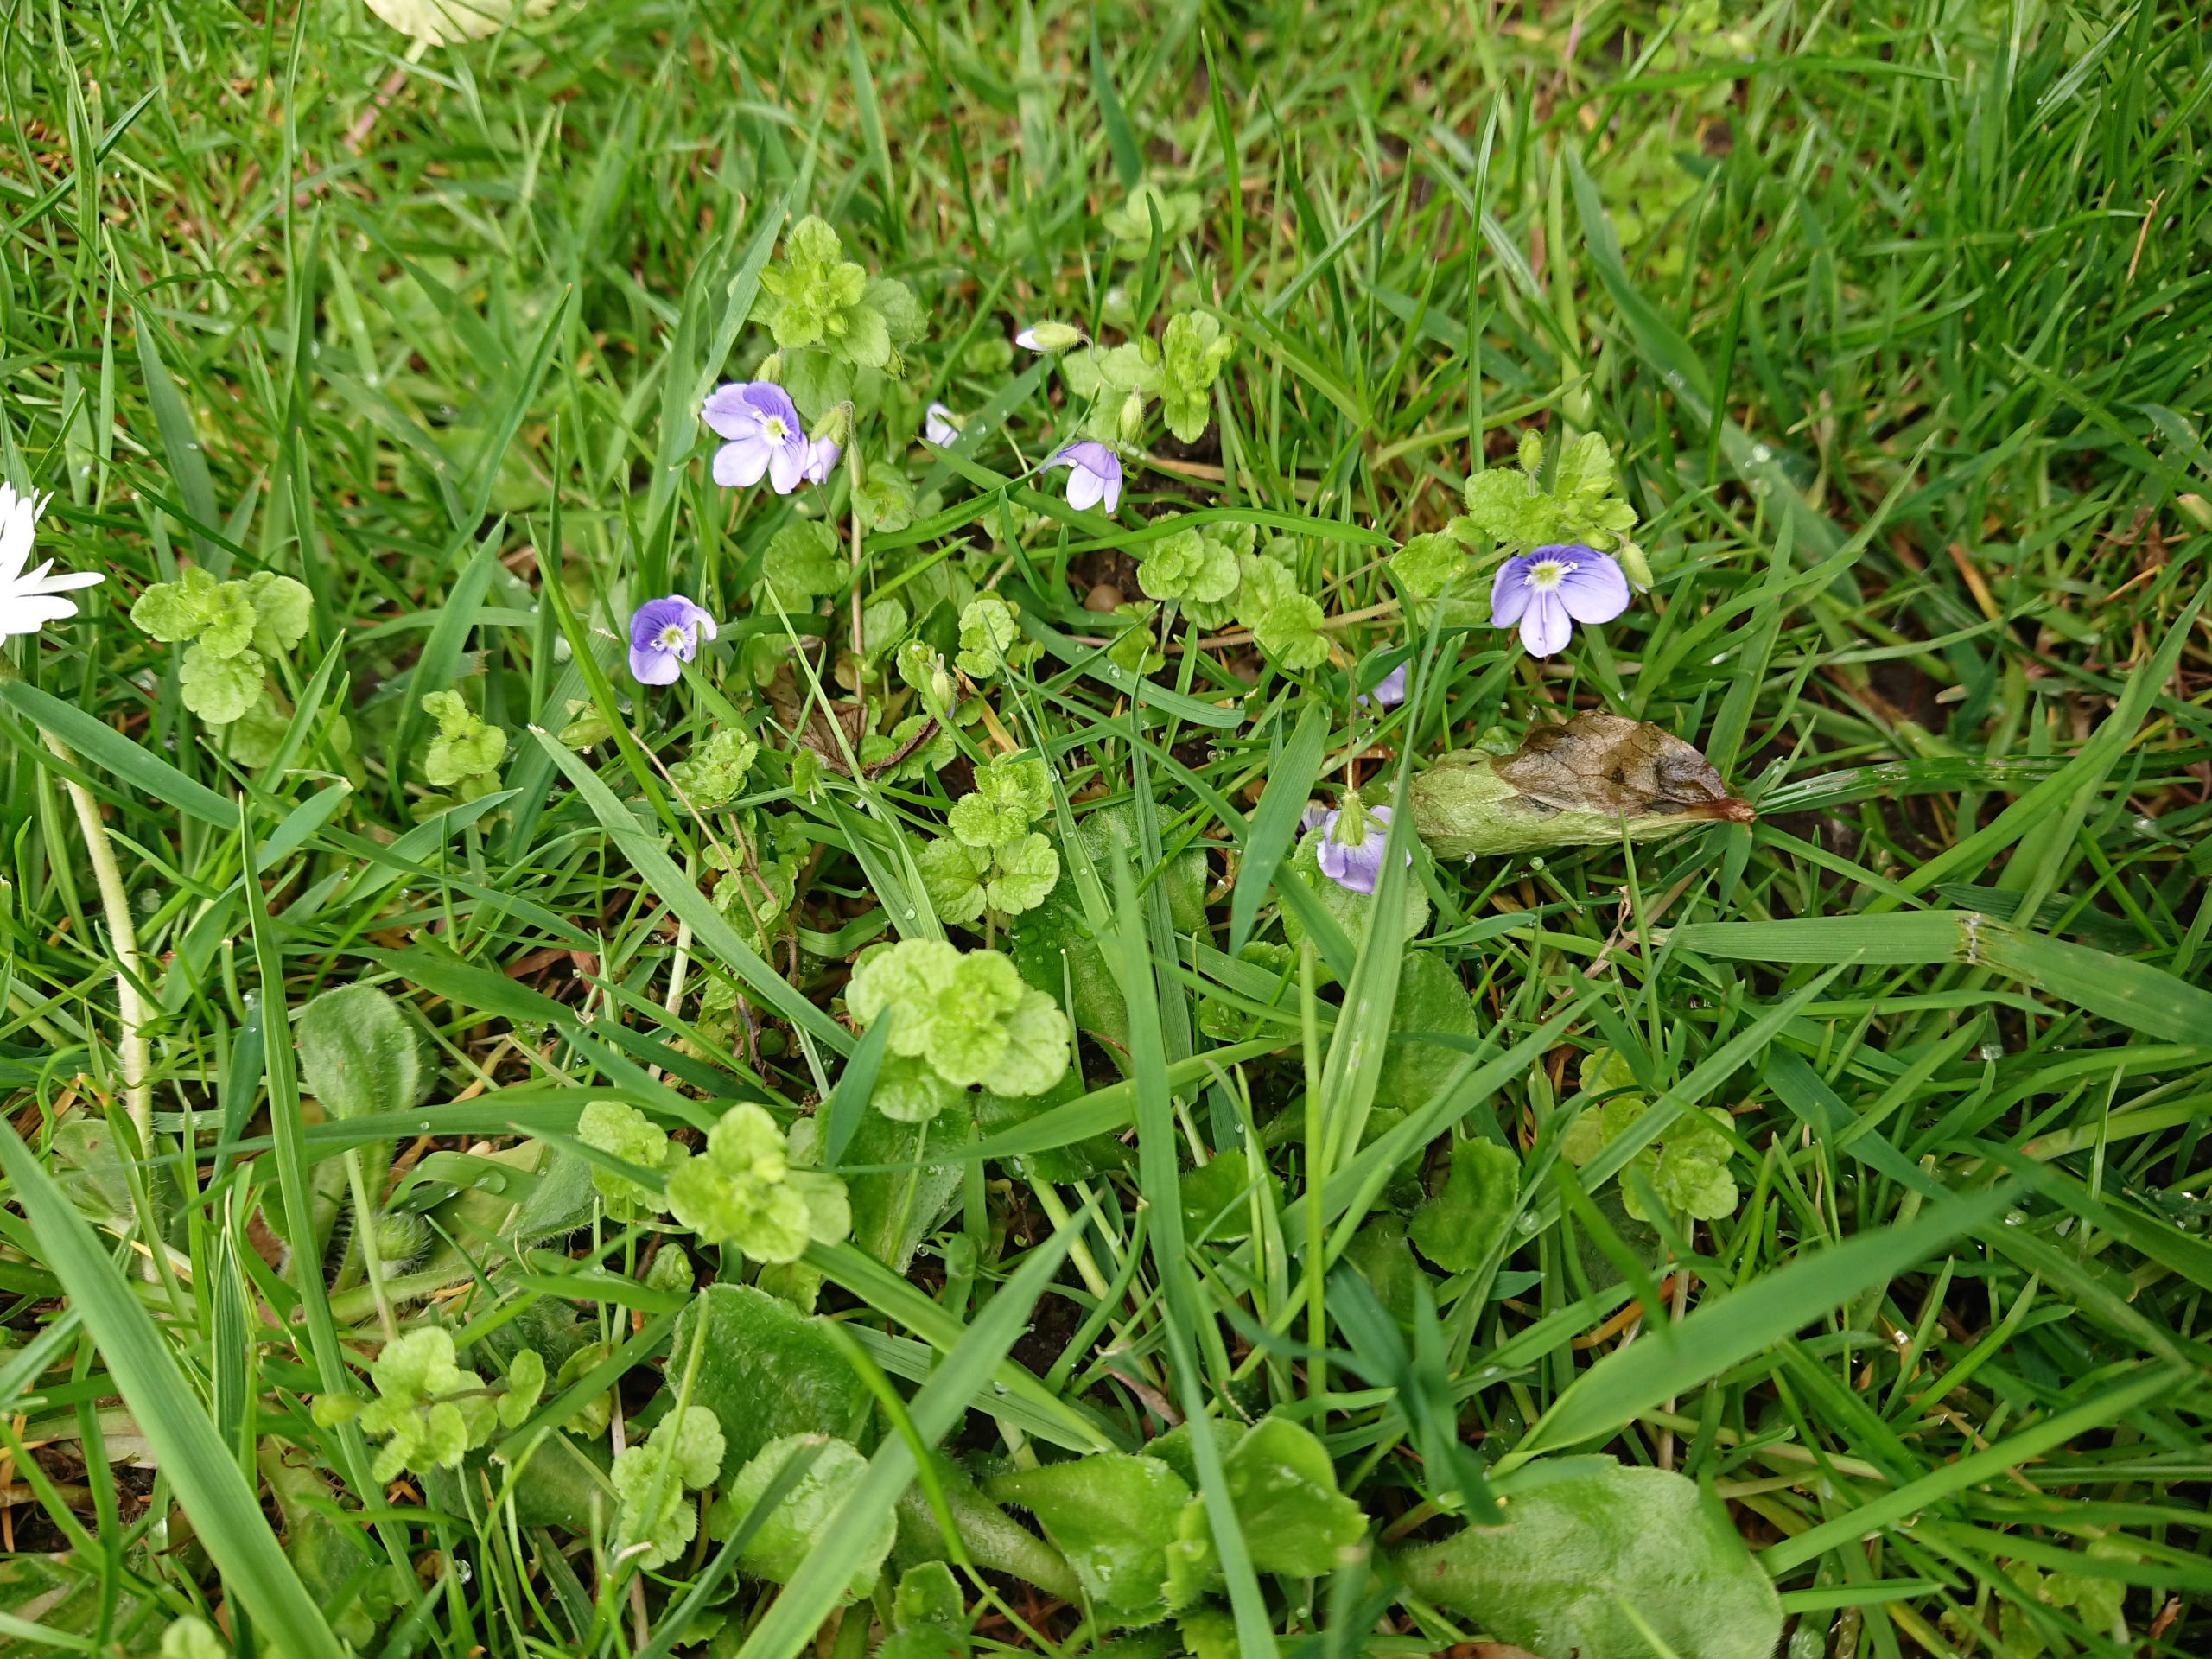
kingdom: Plantae
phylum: Tracheophyta
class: Magnoliopsida
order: Lamiales
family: Plantaginaceae
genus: Veronica
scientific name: Veronica filiformis
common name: Tråd-ærenpris
